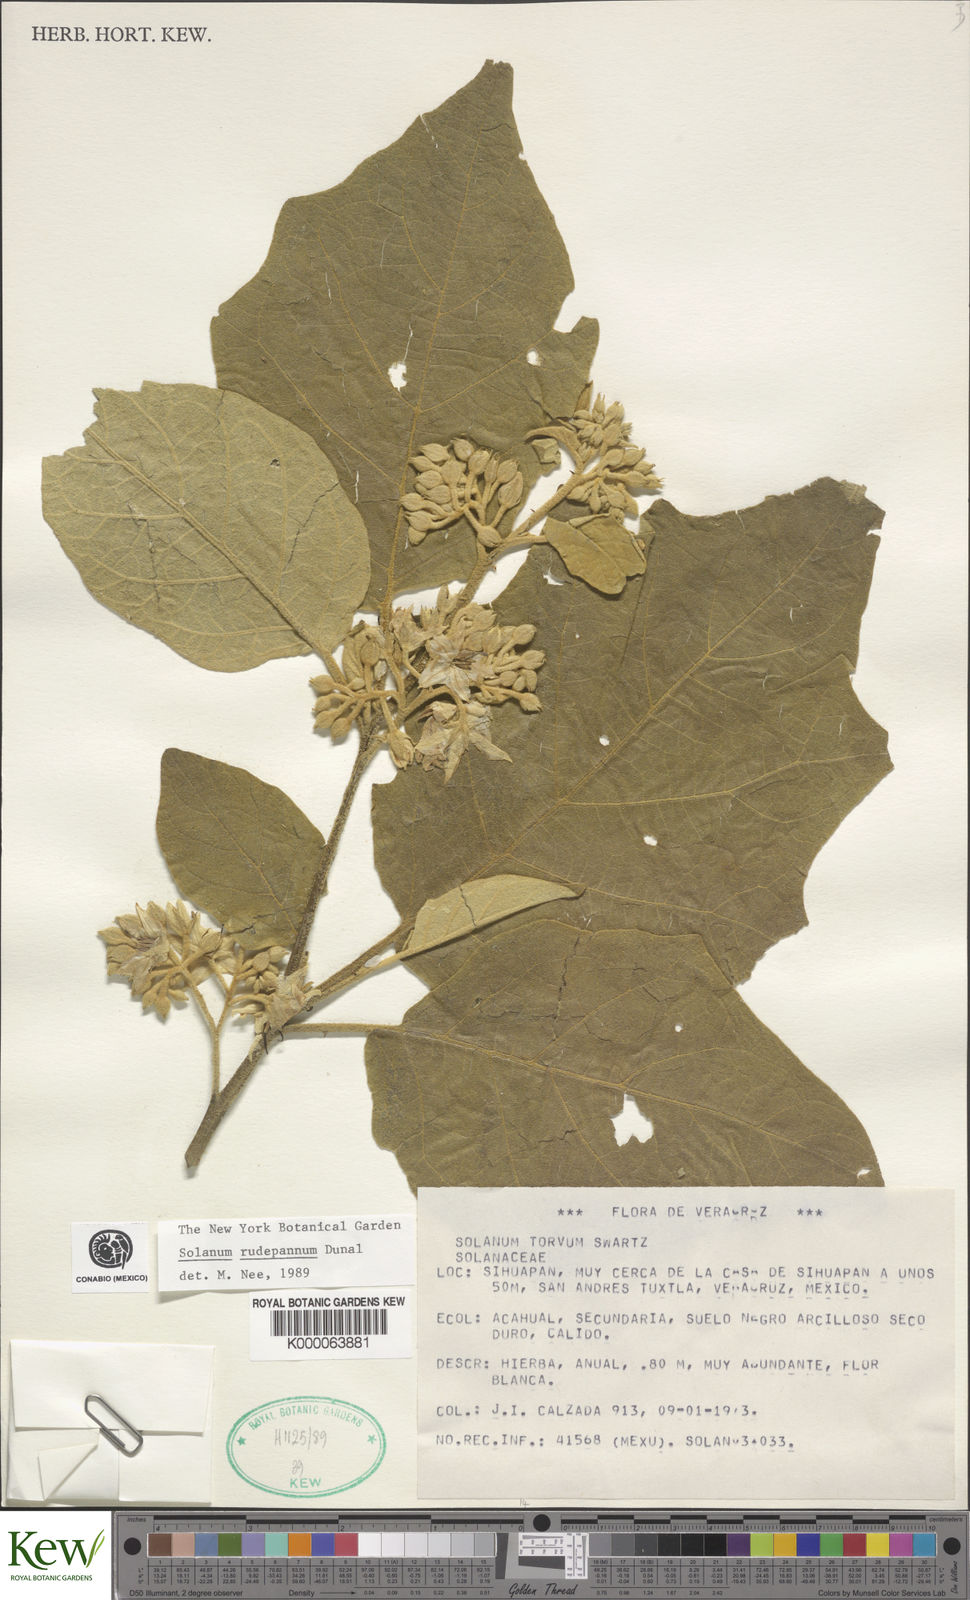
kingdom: Plantae
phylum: Tracheophyta
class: Magnoliopsida
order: Solanales
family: Solanaceae
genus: Solanum
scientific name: Solanum rude-pannum
